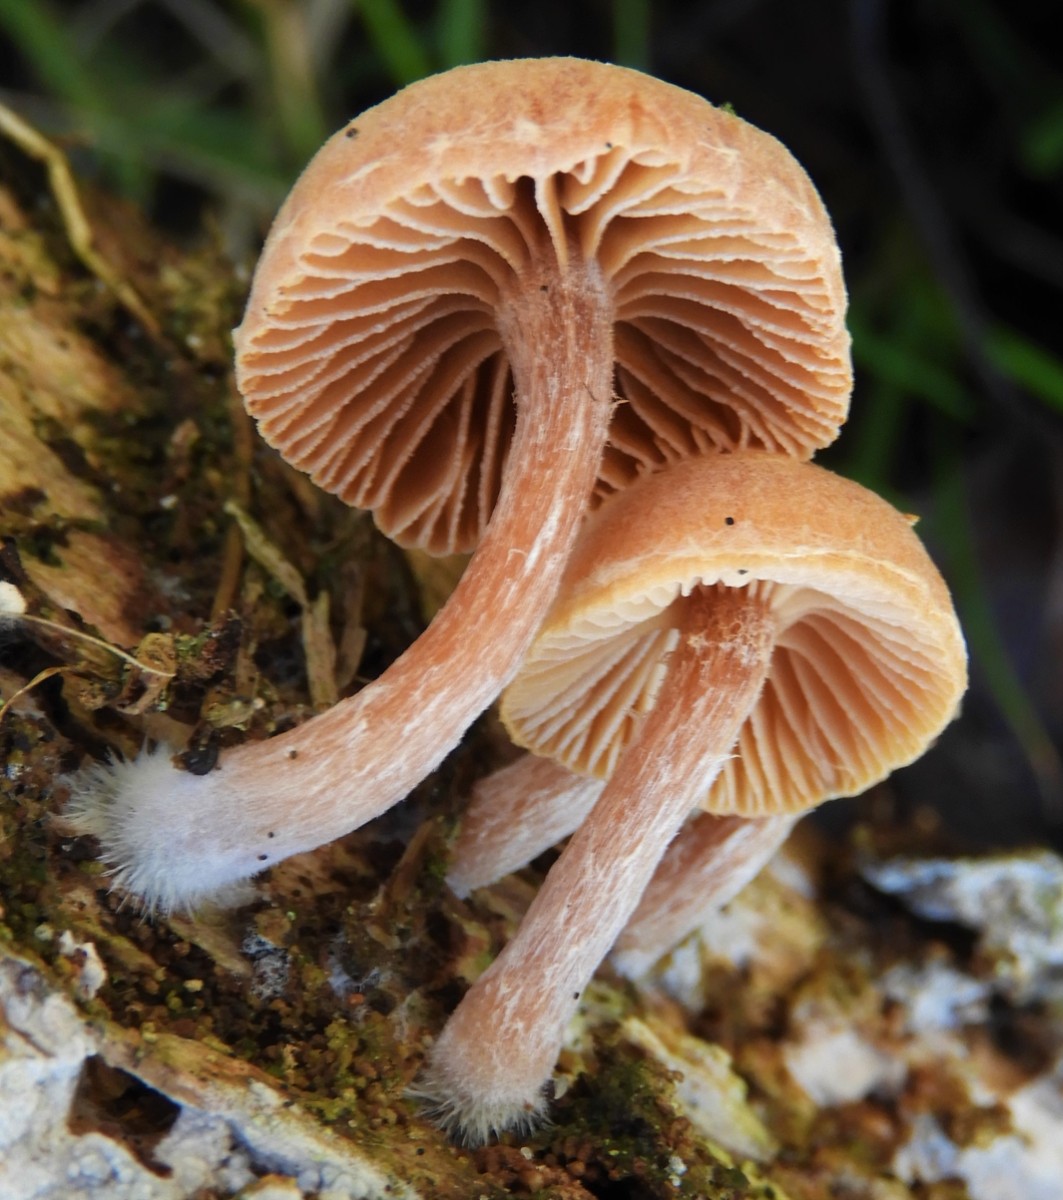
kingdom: Fungi
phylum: Basidiomycota
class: Agaricomycetes
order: Agaricales
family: Tubariaceae
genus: Tubaria
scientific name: Tubaria furfuracea
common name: kliddet fnughat
